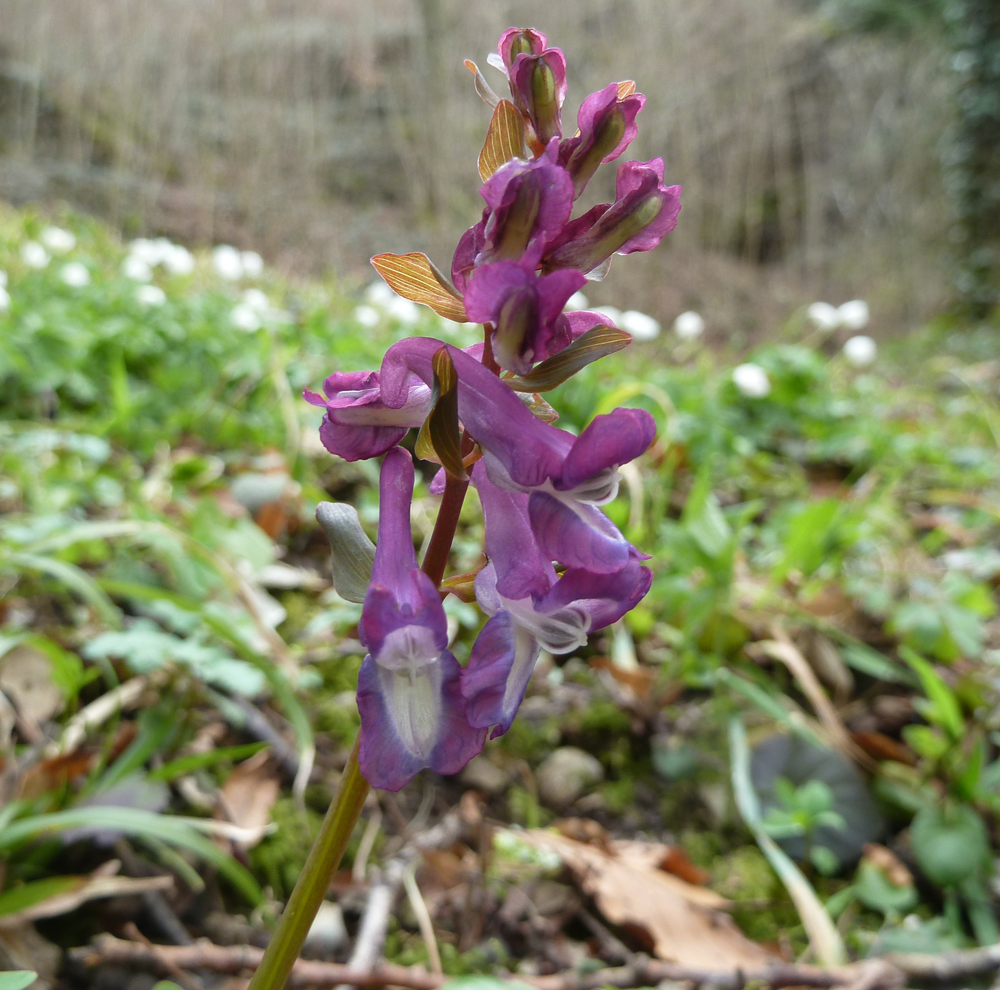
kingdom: Plantae
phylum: Tracheophyta
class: Magnoliopsida
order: Ranunculales
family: Papaveraceae
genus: Corydalis
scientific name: Corydalis cava
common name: Hollowroot
